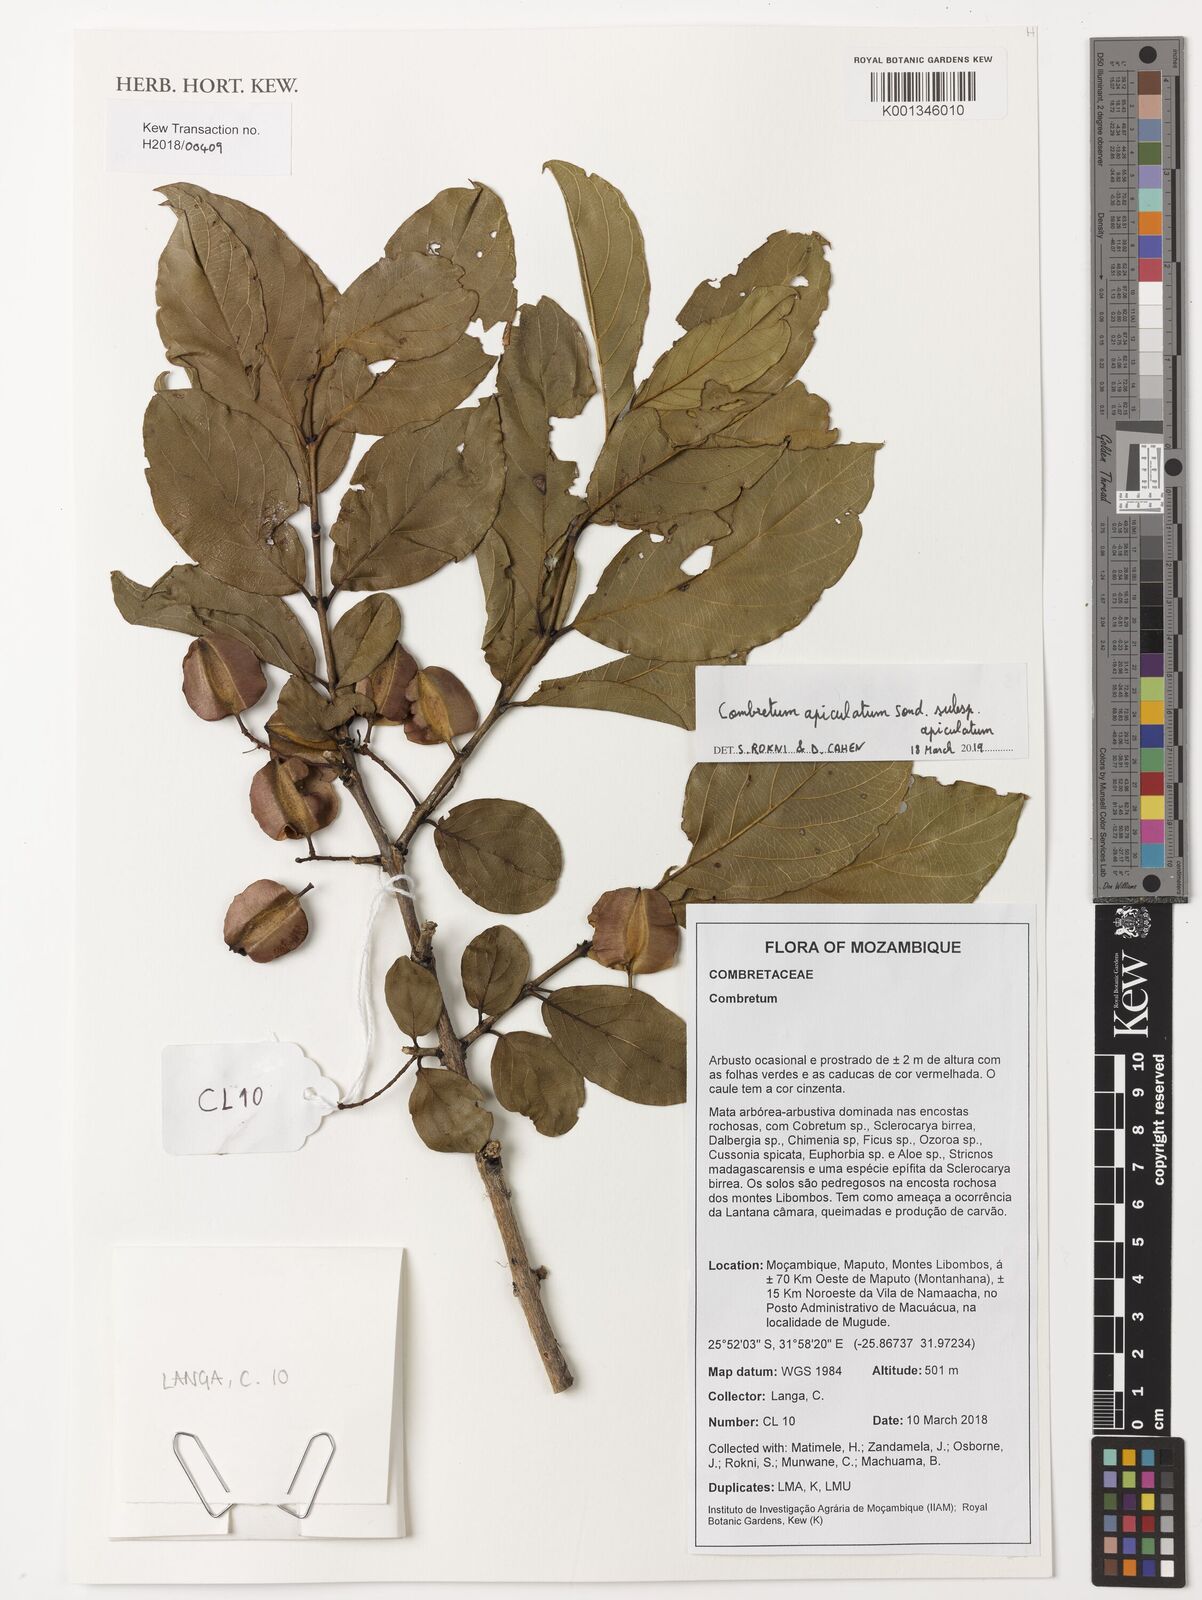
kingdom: Plantae
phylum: Tracheophyta
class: Magnoliopsida
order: Myrtales
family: Combretaceae
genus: Combretum
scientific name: Combretum apiculatum
